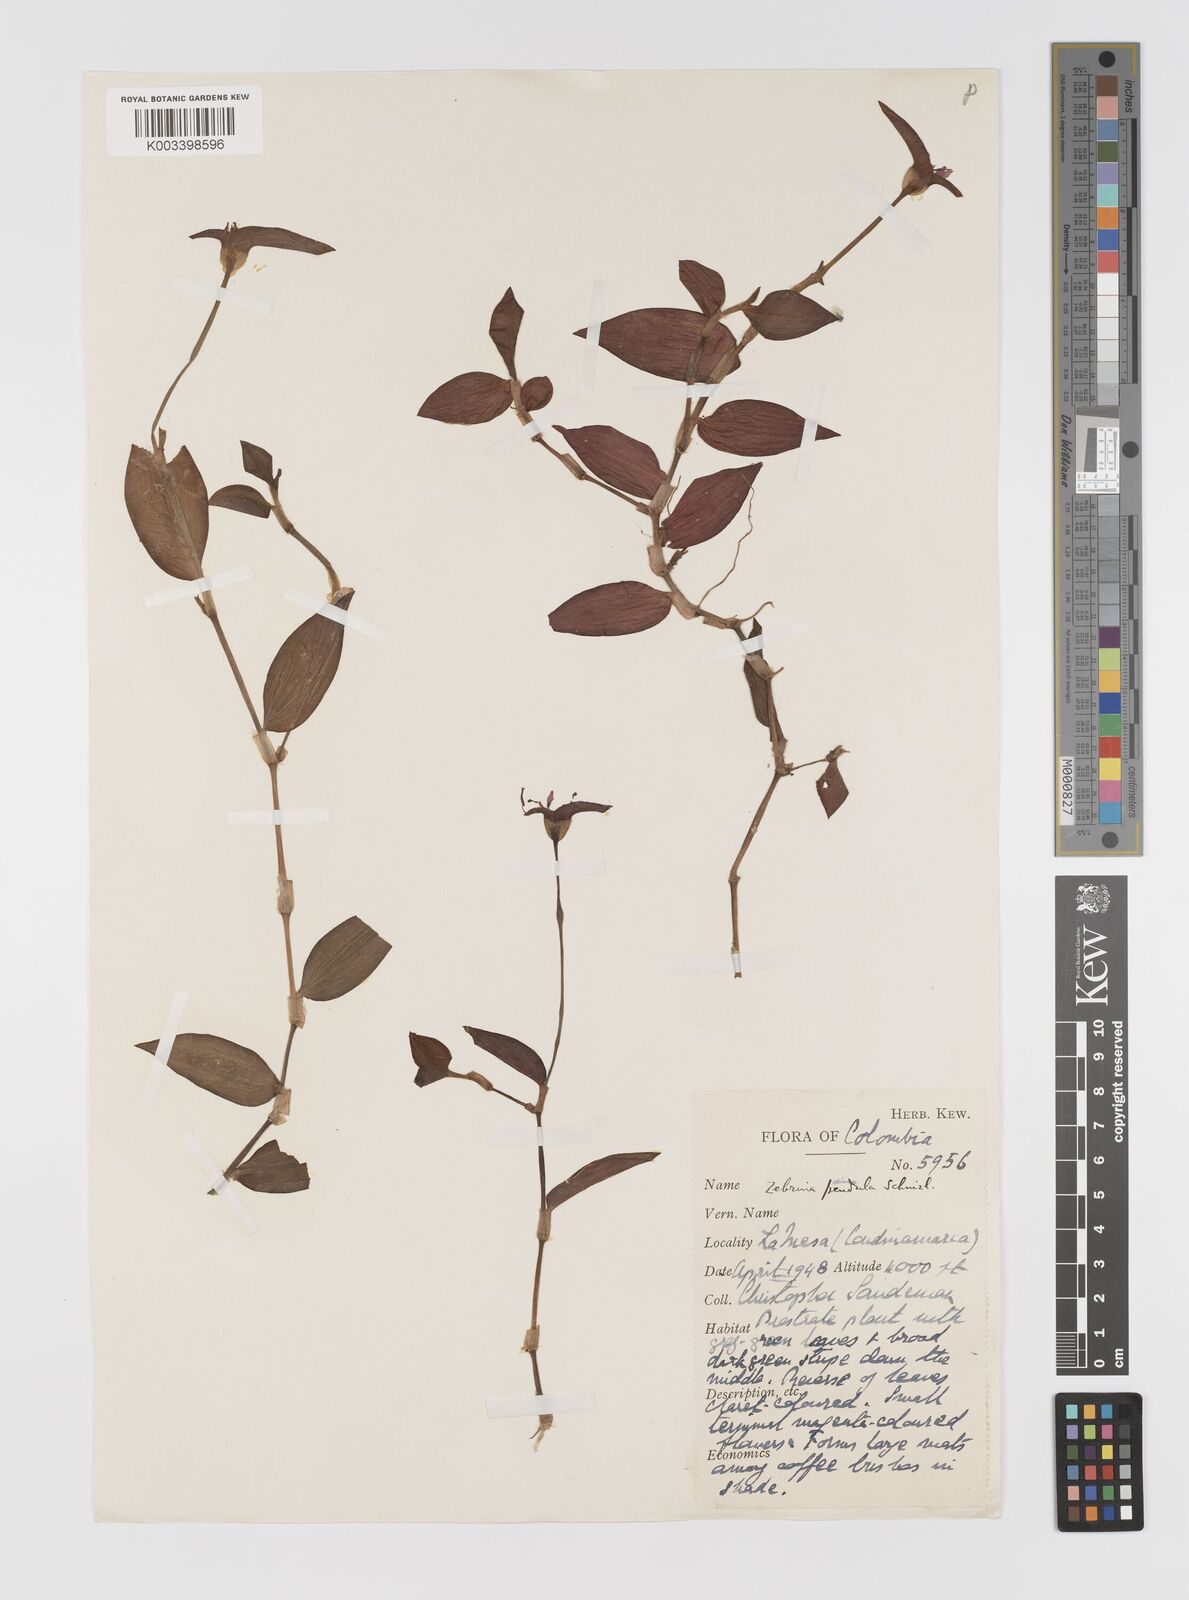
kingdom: Plantae
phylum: Tracheophyta
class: Liliopsida
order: Commelinales
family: Commelinaceae
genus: Tradescantia
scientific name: Tradescantia zebrina
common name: Inchplant
